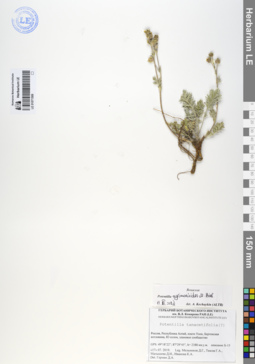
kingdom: Plantae
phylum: Tracheophyta
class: Magnoliopsida
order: Rosales
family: Rosaceae
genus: Potentilla
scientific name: Potentilla agrimonioides
